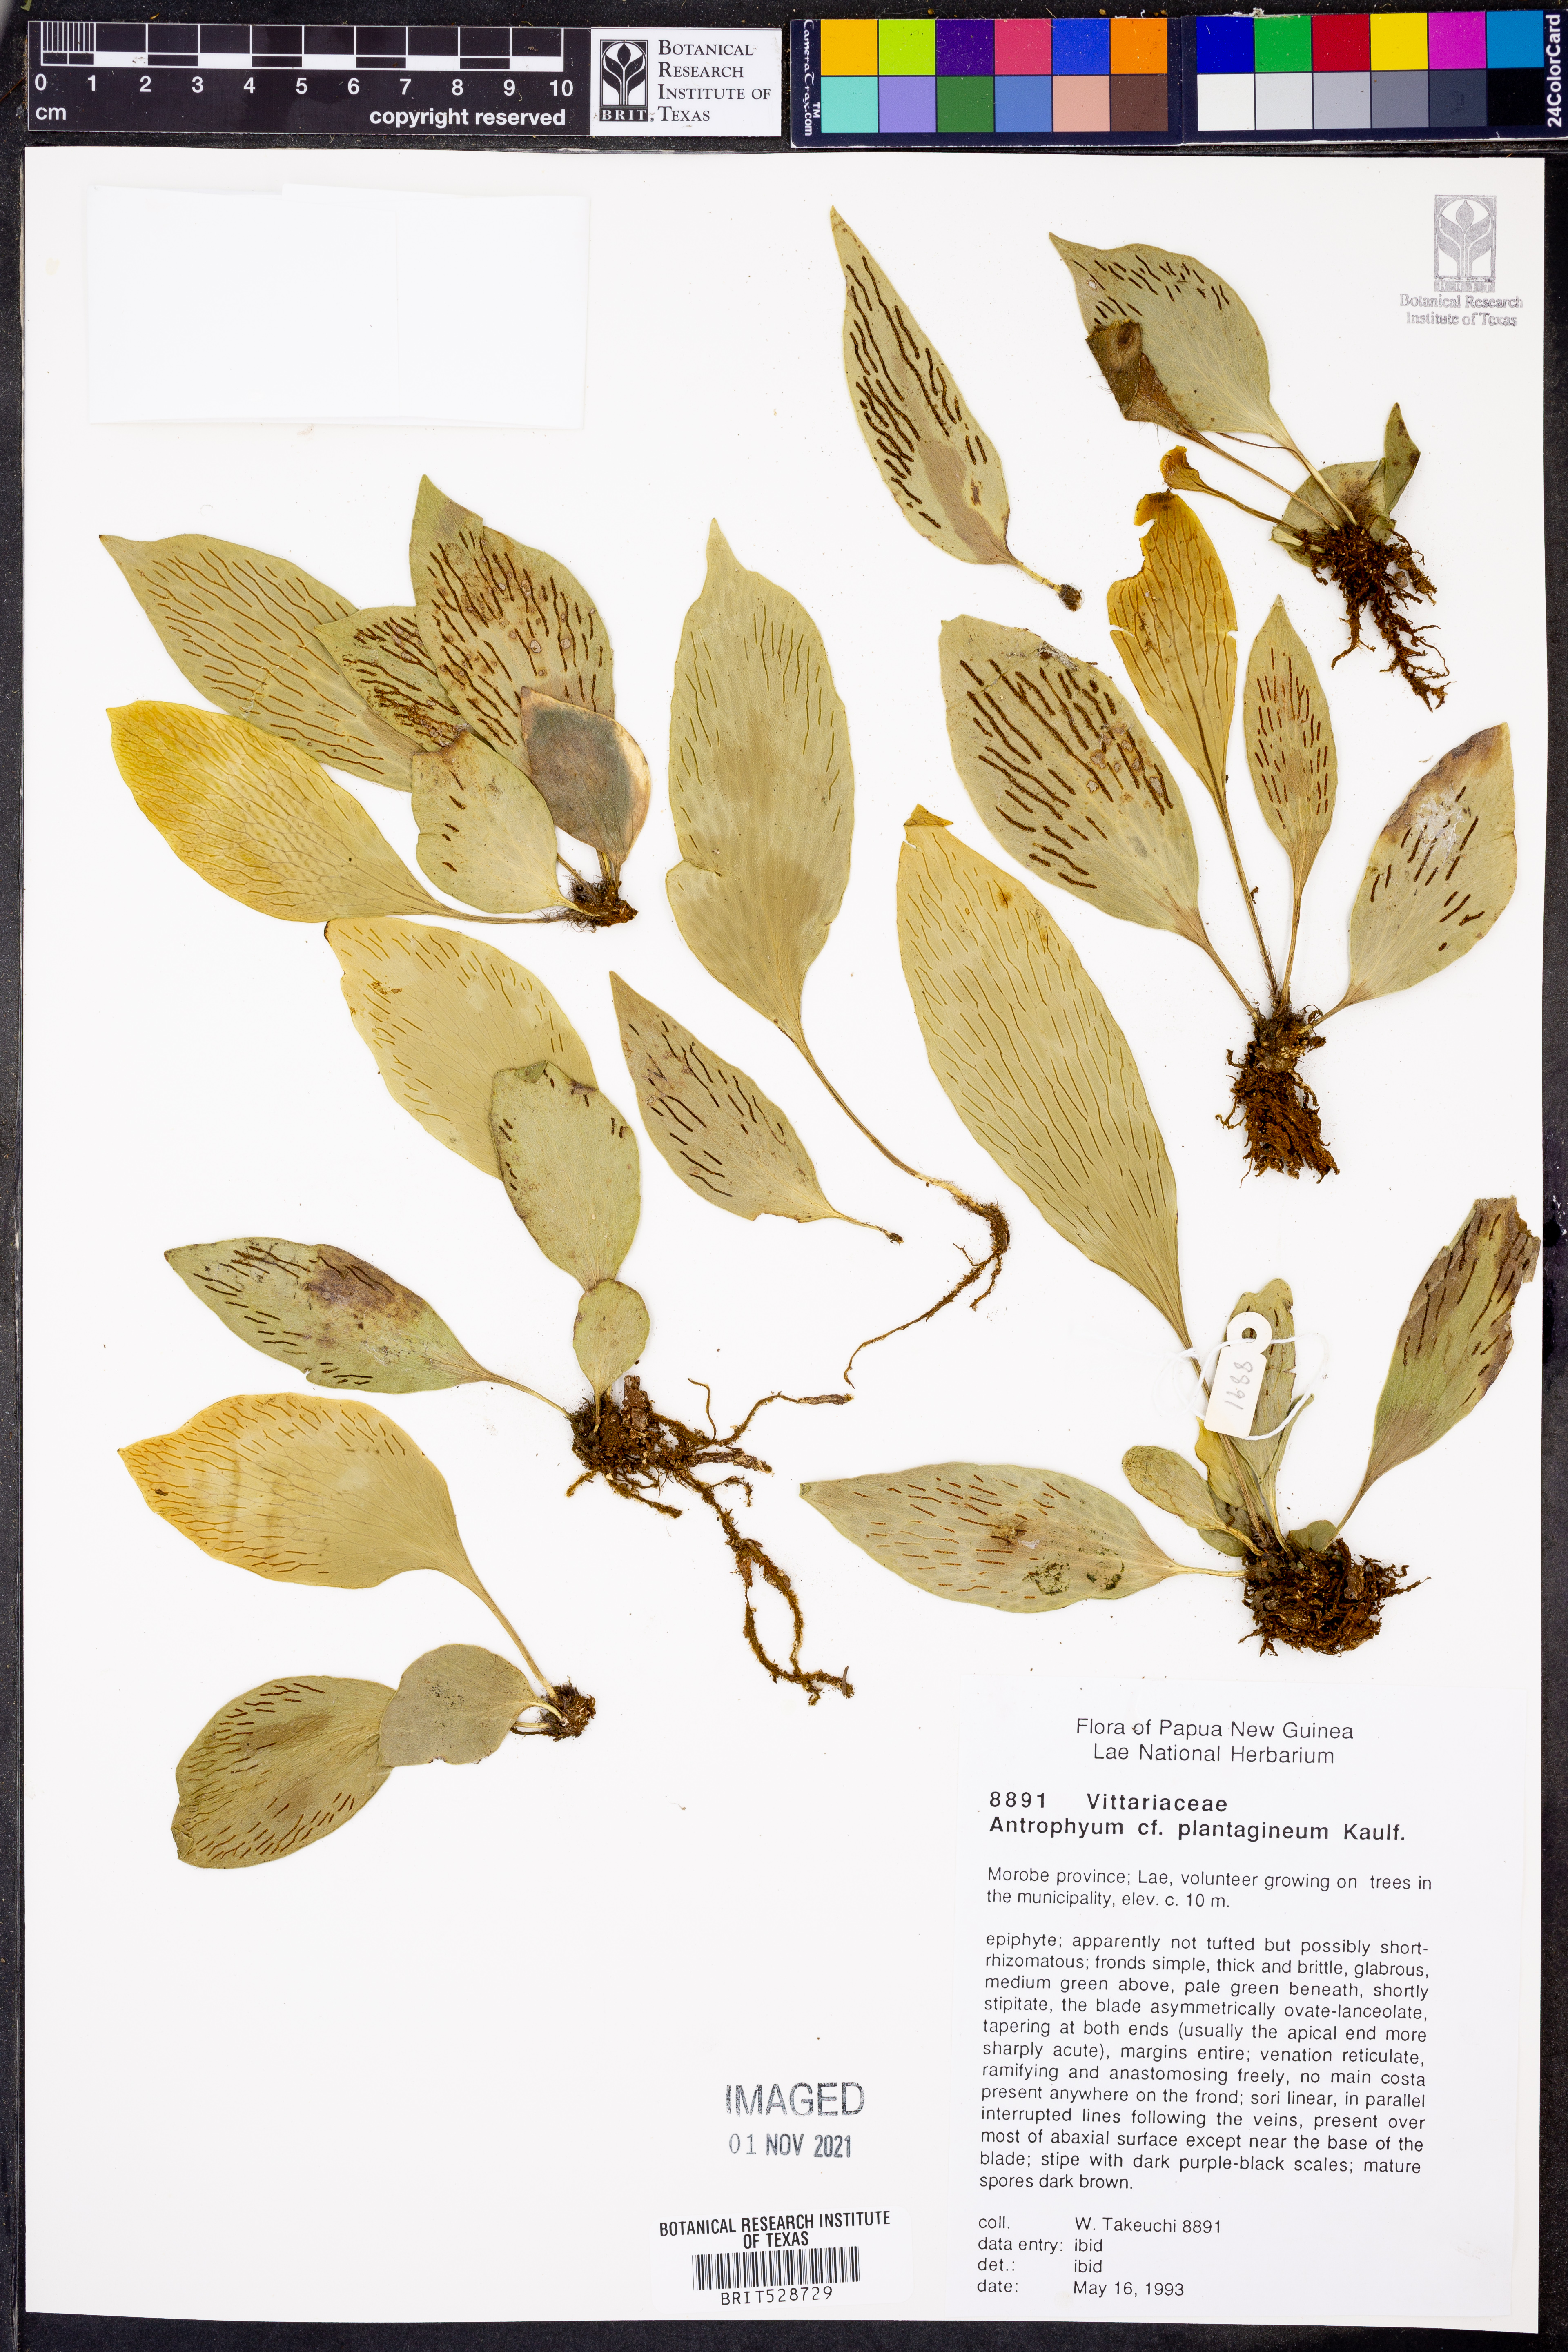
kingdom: Plantae
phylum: Tracheophyta
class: Polypodiopsida
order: Polypodiales
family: Pteridaceae
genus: Antrophyum
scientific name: Antrophyum plantagineum
